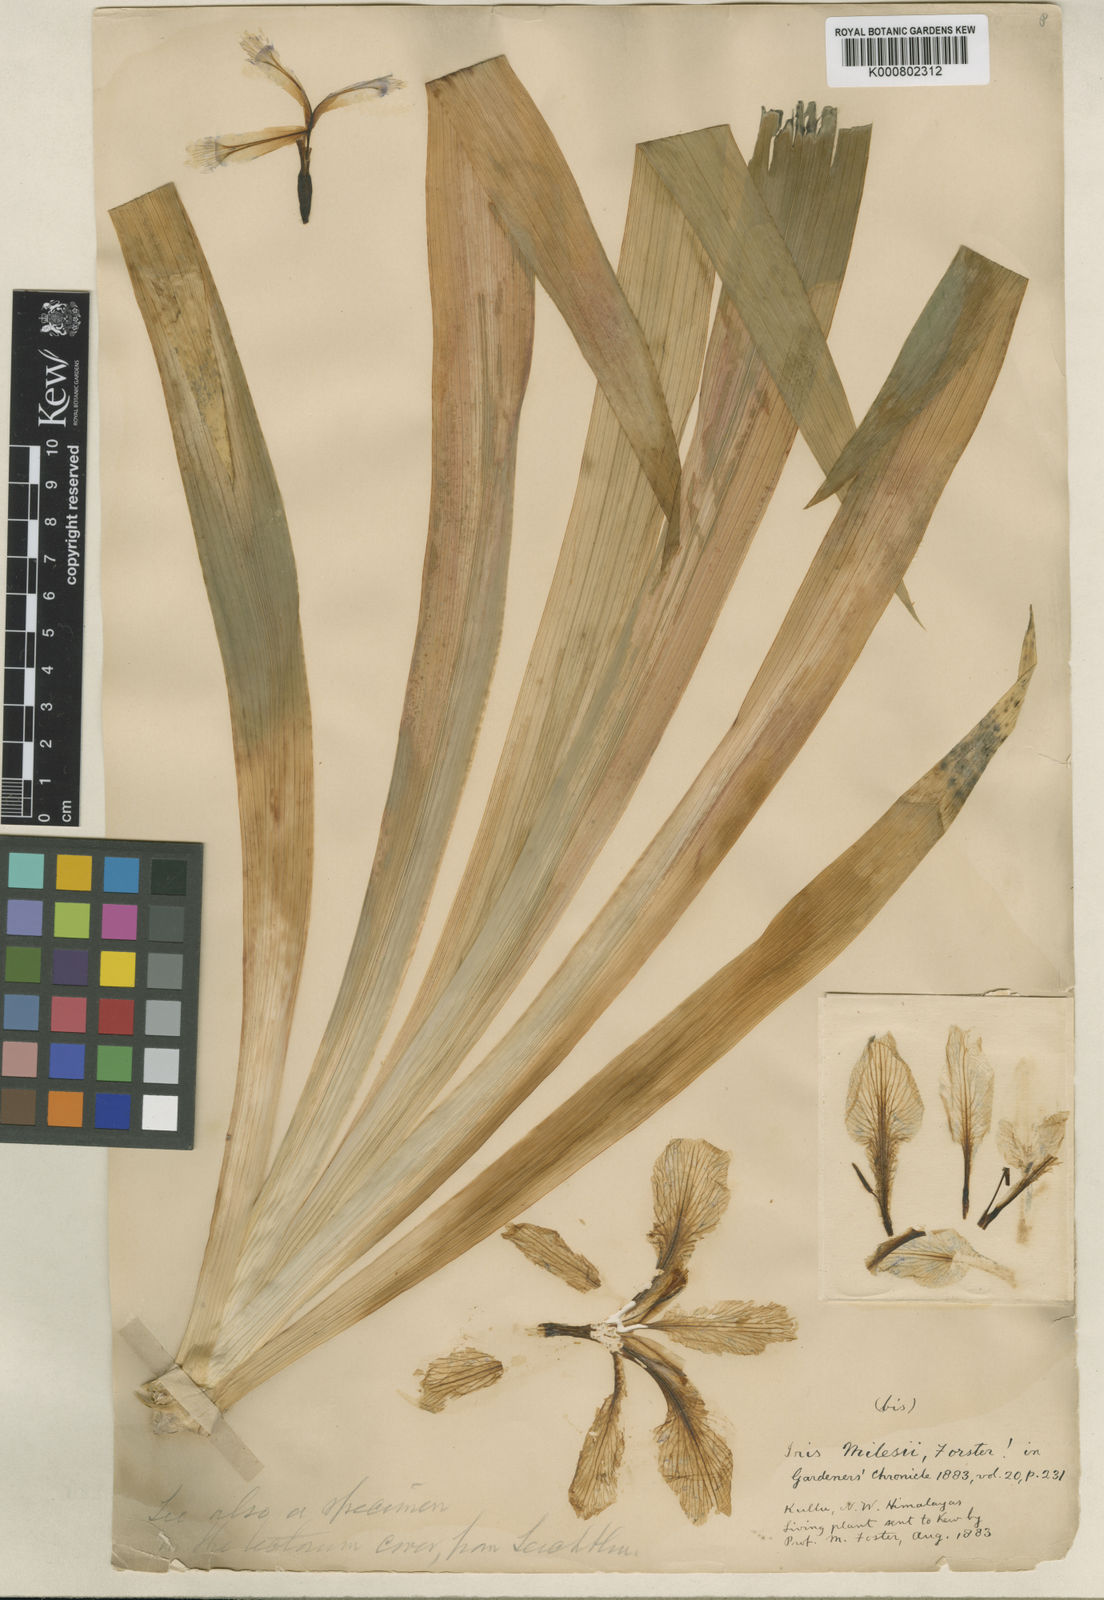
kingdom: Plantae
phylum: Tracheophyta
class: Liliopsida
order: Asparagales
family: Iridaceae
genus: Iris
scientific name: Iris milesii
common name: Red-flower iris
